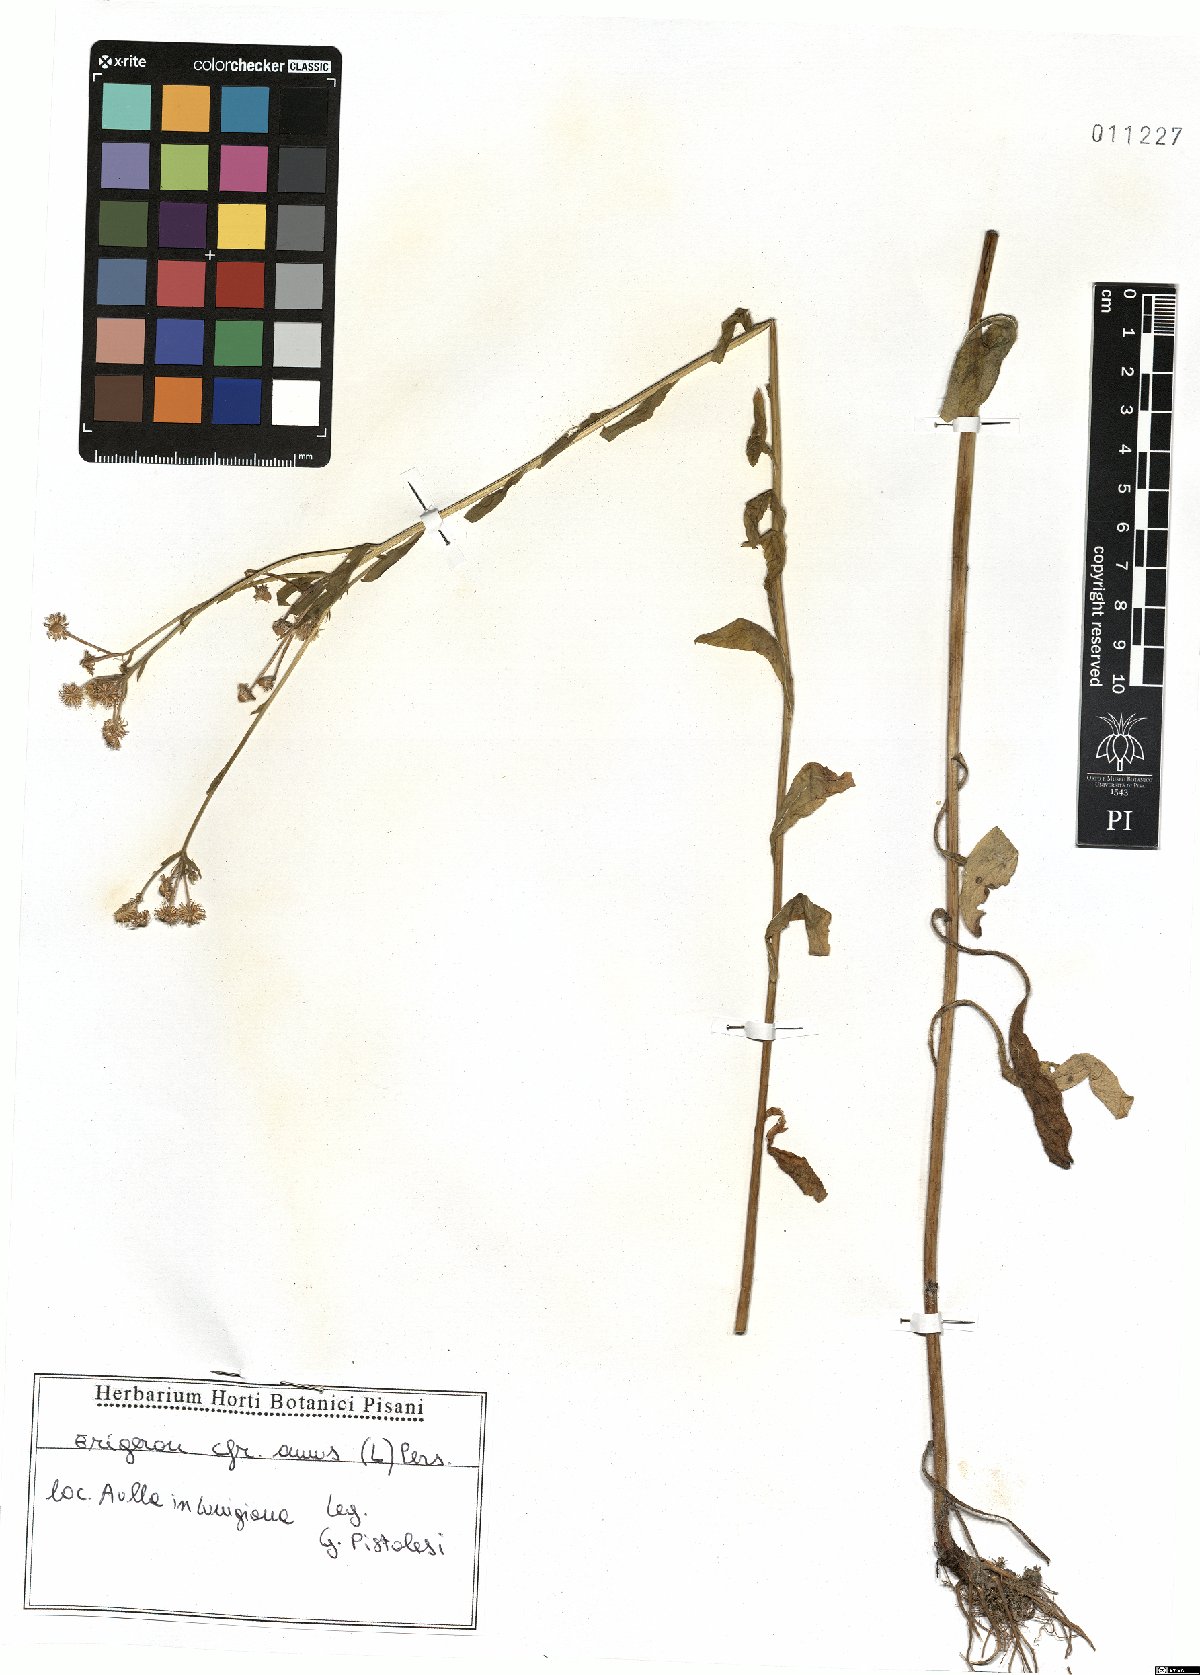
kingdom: Plantae
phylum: Tracheophyta
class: Magnoliopsida
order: Asterales
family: Asteraceae
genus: Erigeron
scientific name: Erigeron annuus
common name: Tall fleabane
